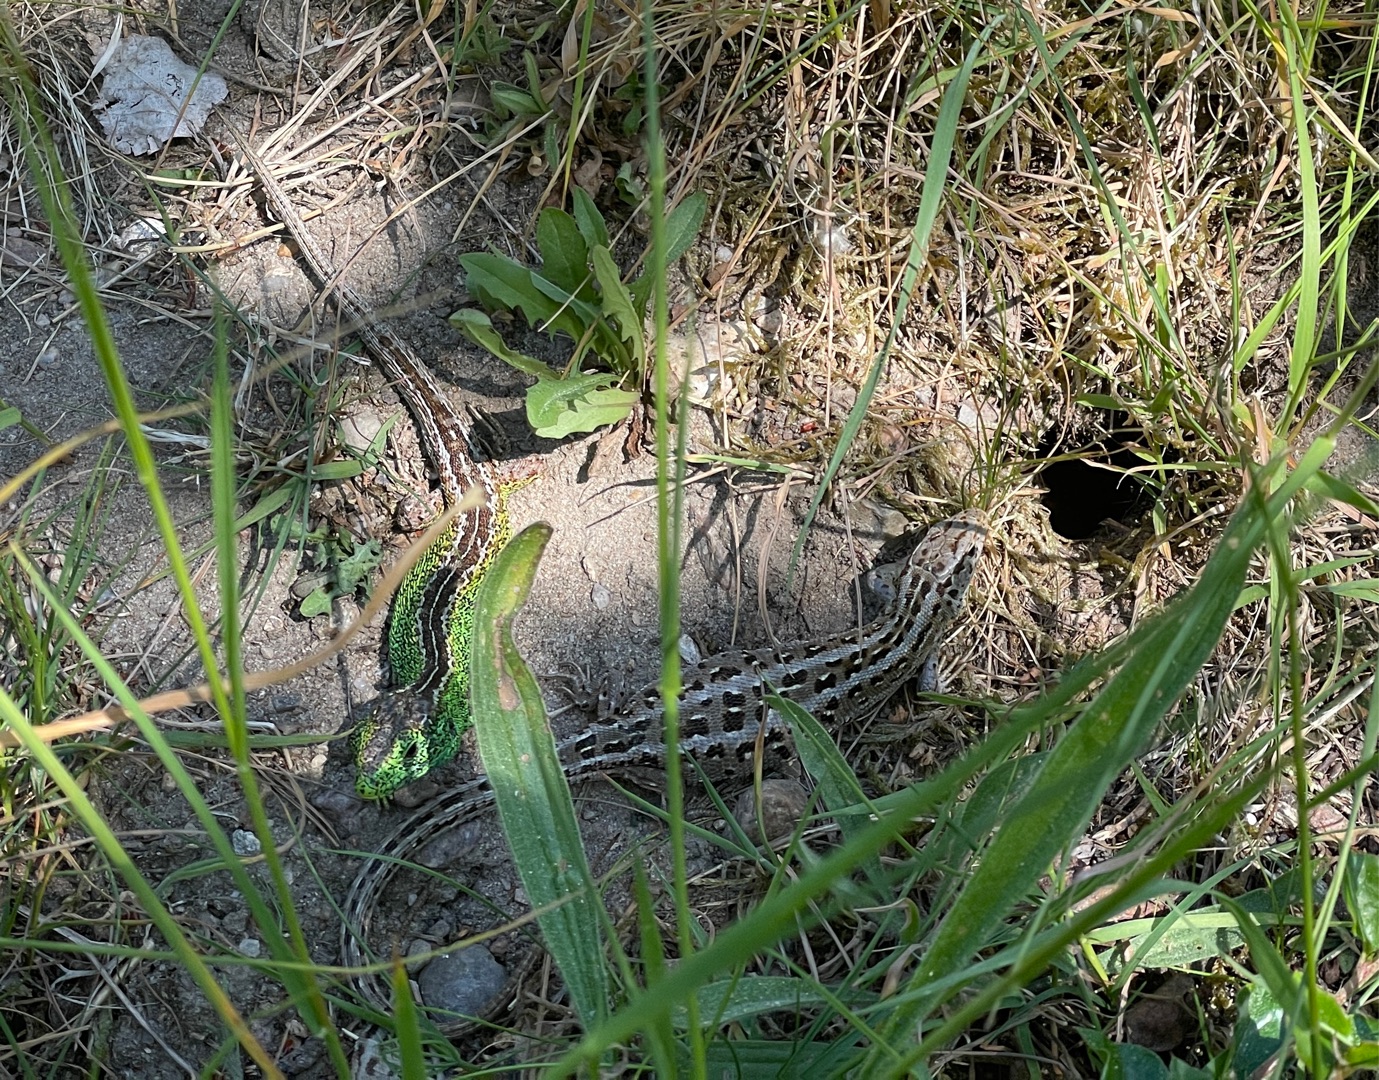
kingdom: Animalia
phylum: Chordata
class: Squamata
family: Lacertidae
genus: Lacerta
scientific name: Lacerta agilis
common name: Markfirben
